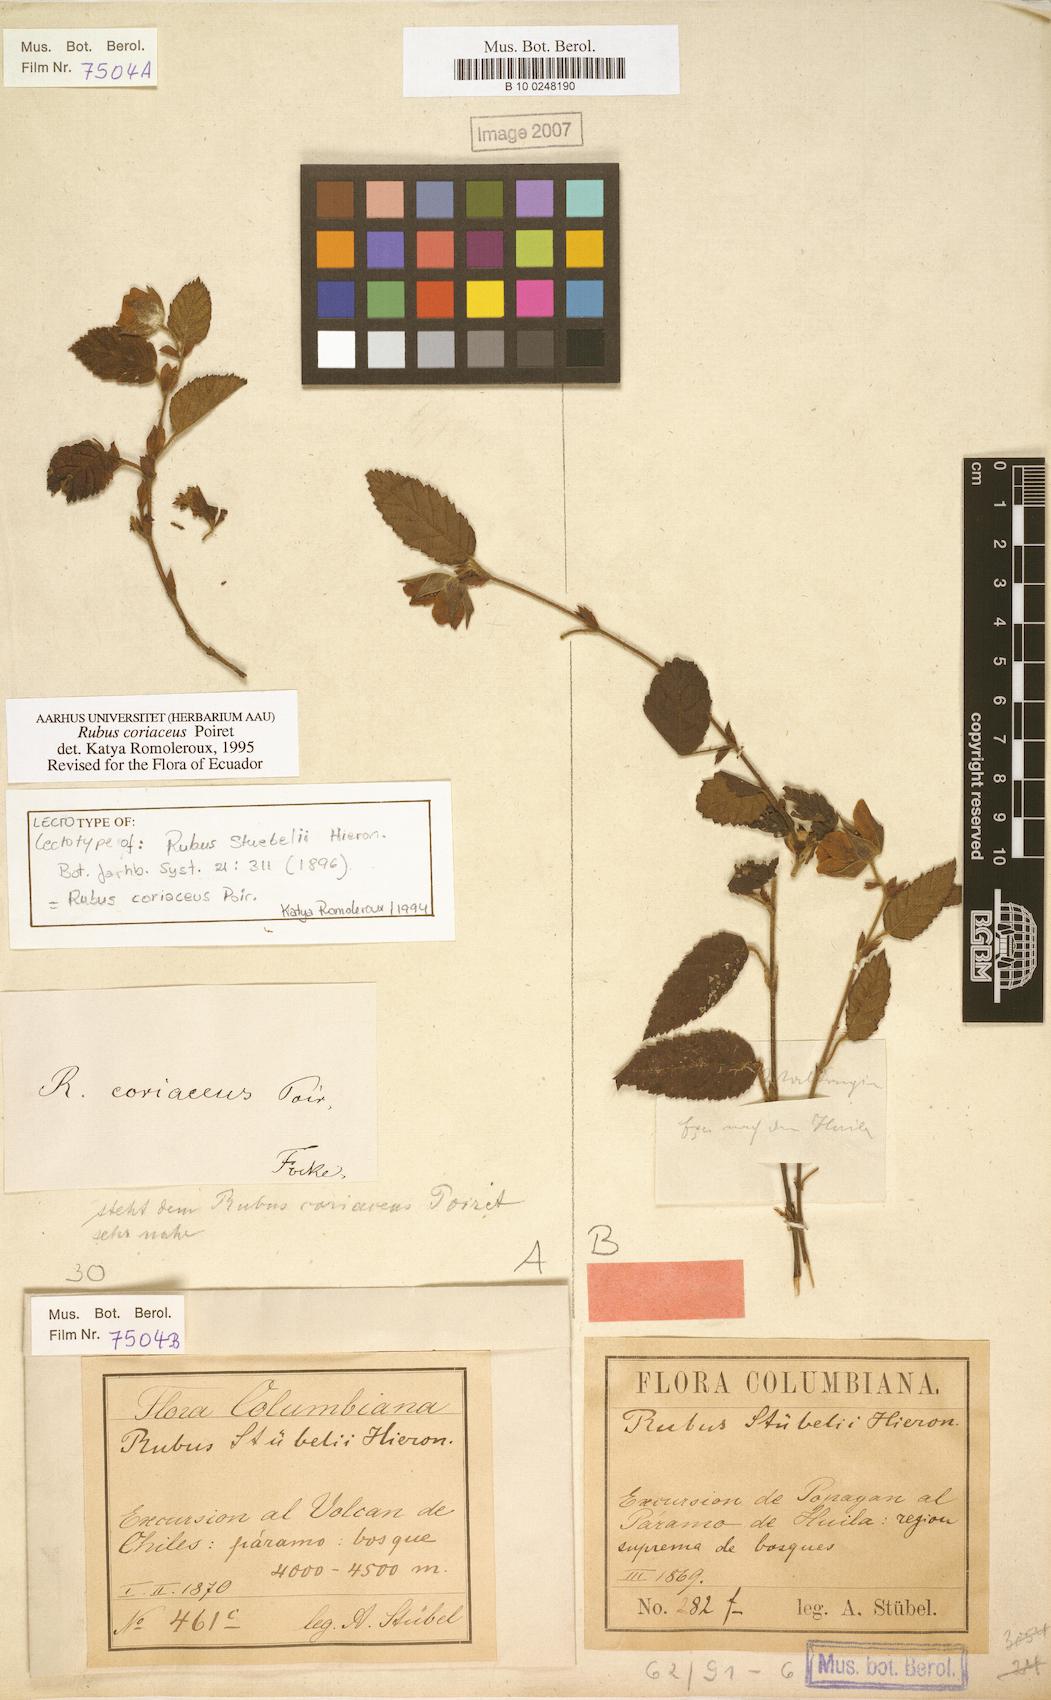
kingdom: Plantae
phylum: Tracheophyta
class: Magnoliopsida
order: Rosales
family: Rosaceae
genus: Rubus
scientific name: Rubus coriaceus
